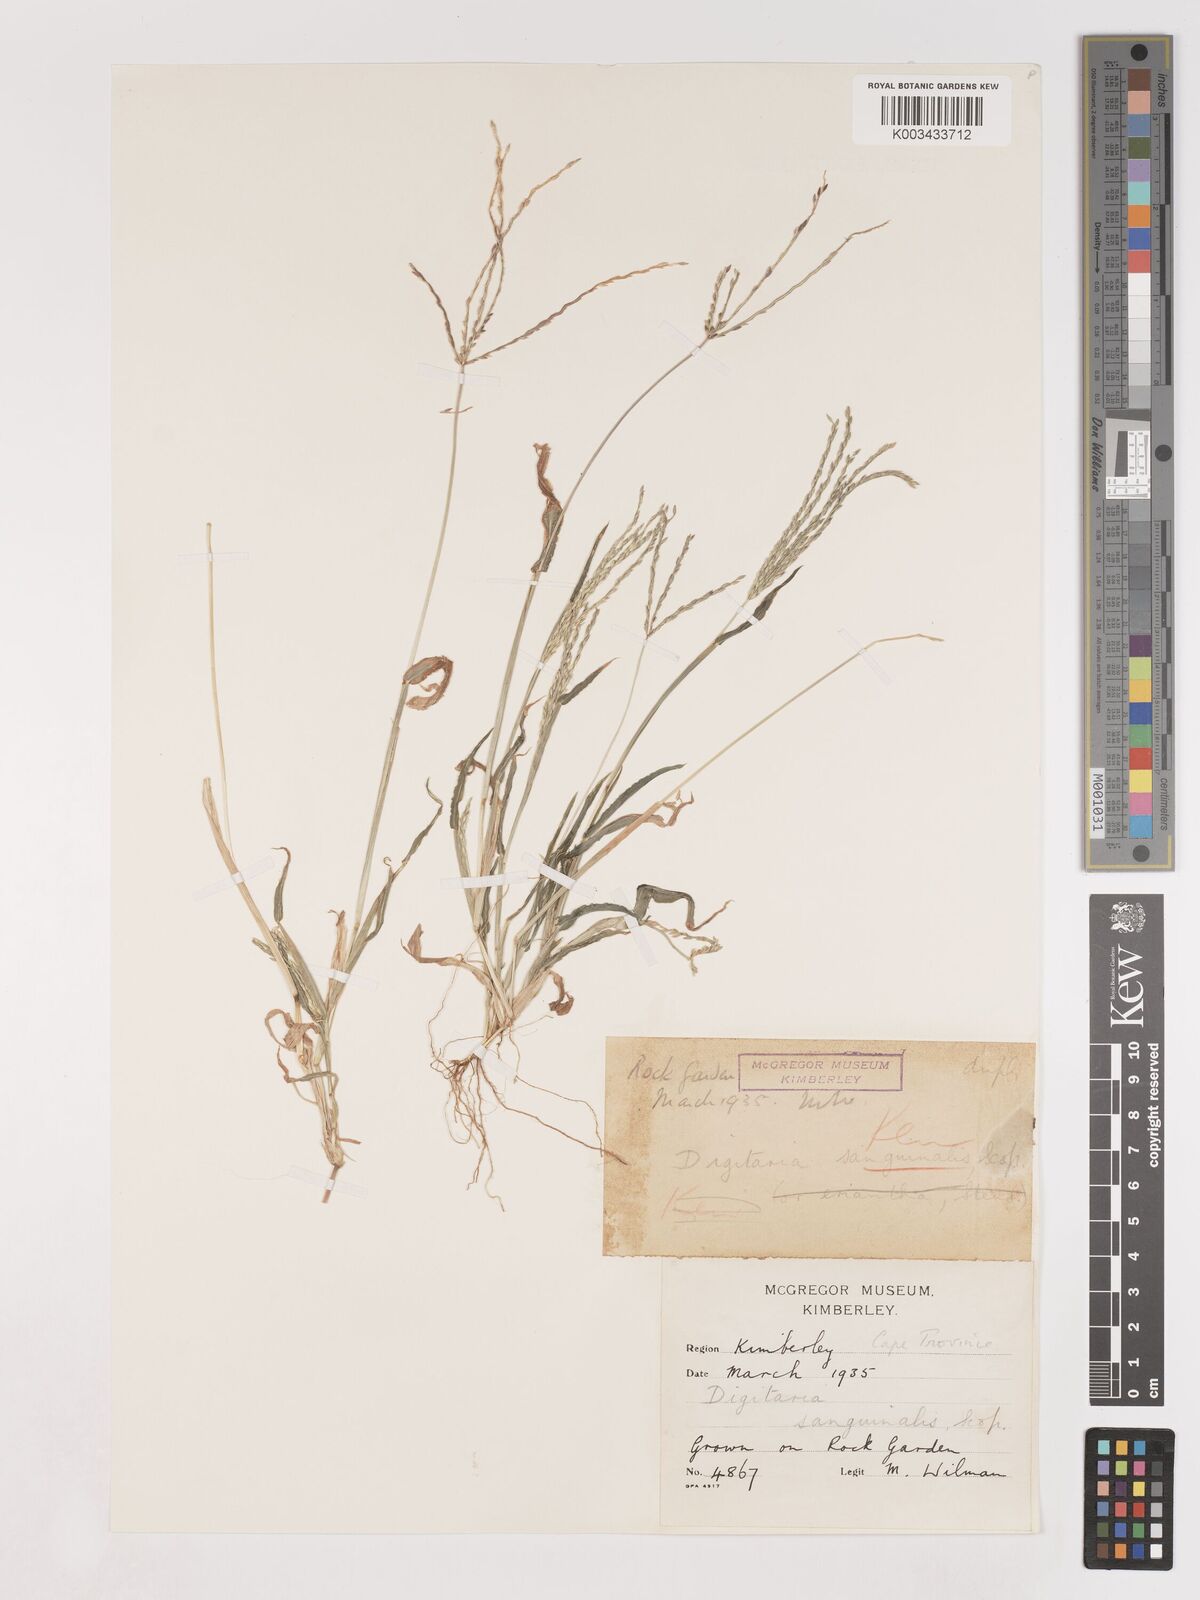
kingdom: Plantae
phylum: Tracheophyta
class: Liliopsida
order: Poales
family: Poaceae
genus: Digitaria
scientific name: Digitaria sanguinalis
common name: Hairy crabgrass
